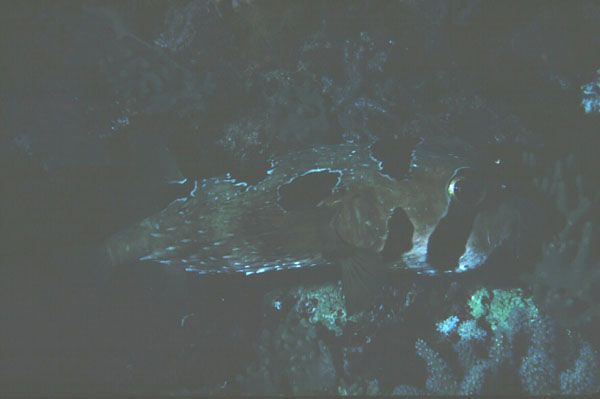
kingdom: Animalia
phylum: Chordata
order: Tetraodontiformes
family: Diodontidae
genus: Diodon
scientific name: Diodon liturosus
